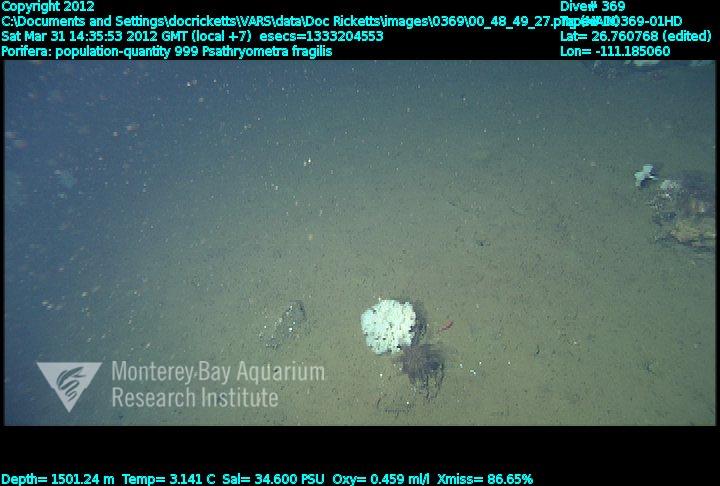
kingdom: Animalia
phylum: Porifera
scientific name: Porifera
